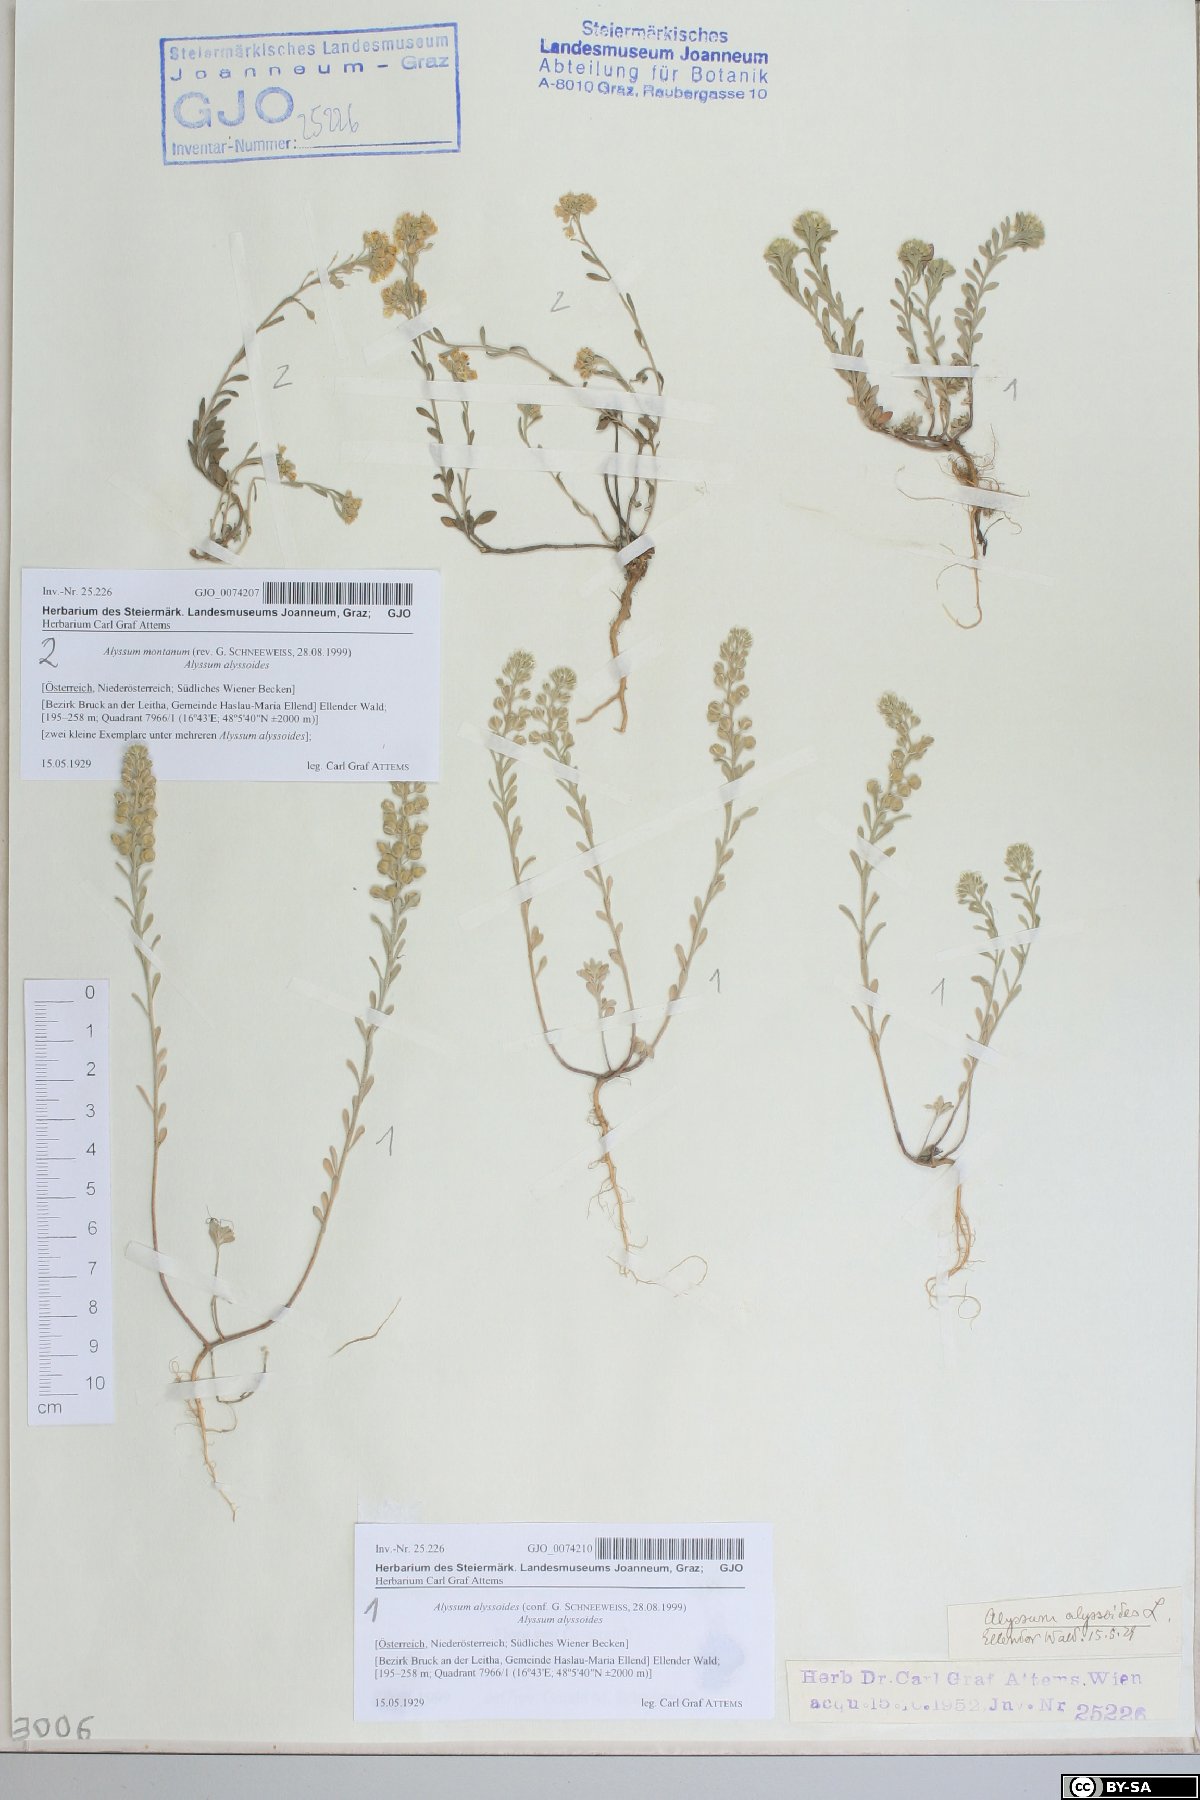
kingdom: Plantae
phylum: Tracheophyta
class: Magnoliopsida
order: Brassicales
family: Brassicaceae
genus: Alyssum
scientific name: Alyssum alyssoides
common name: Small alison
